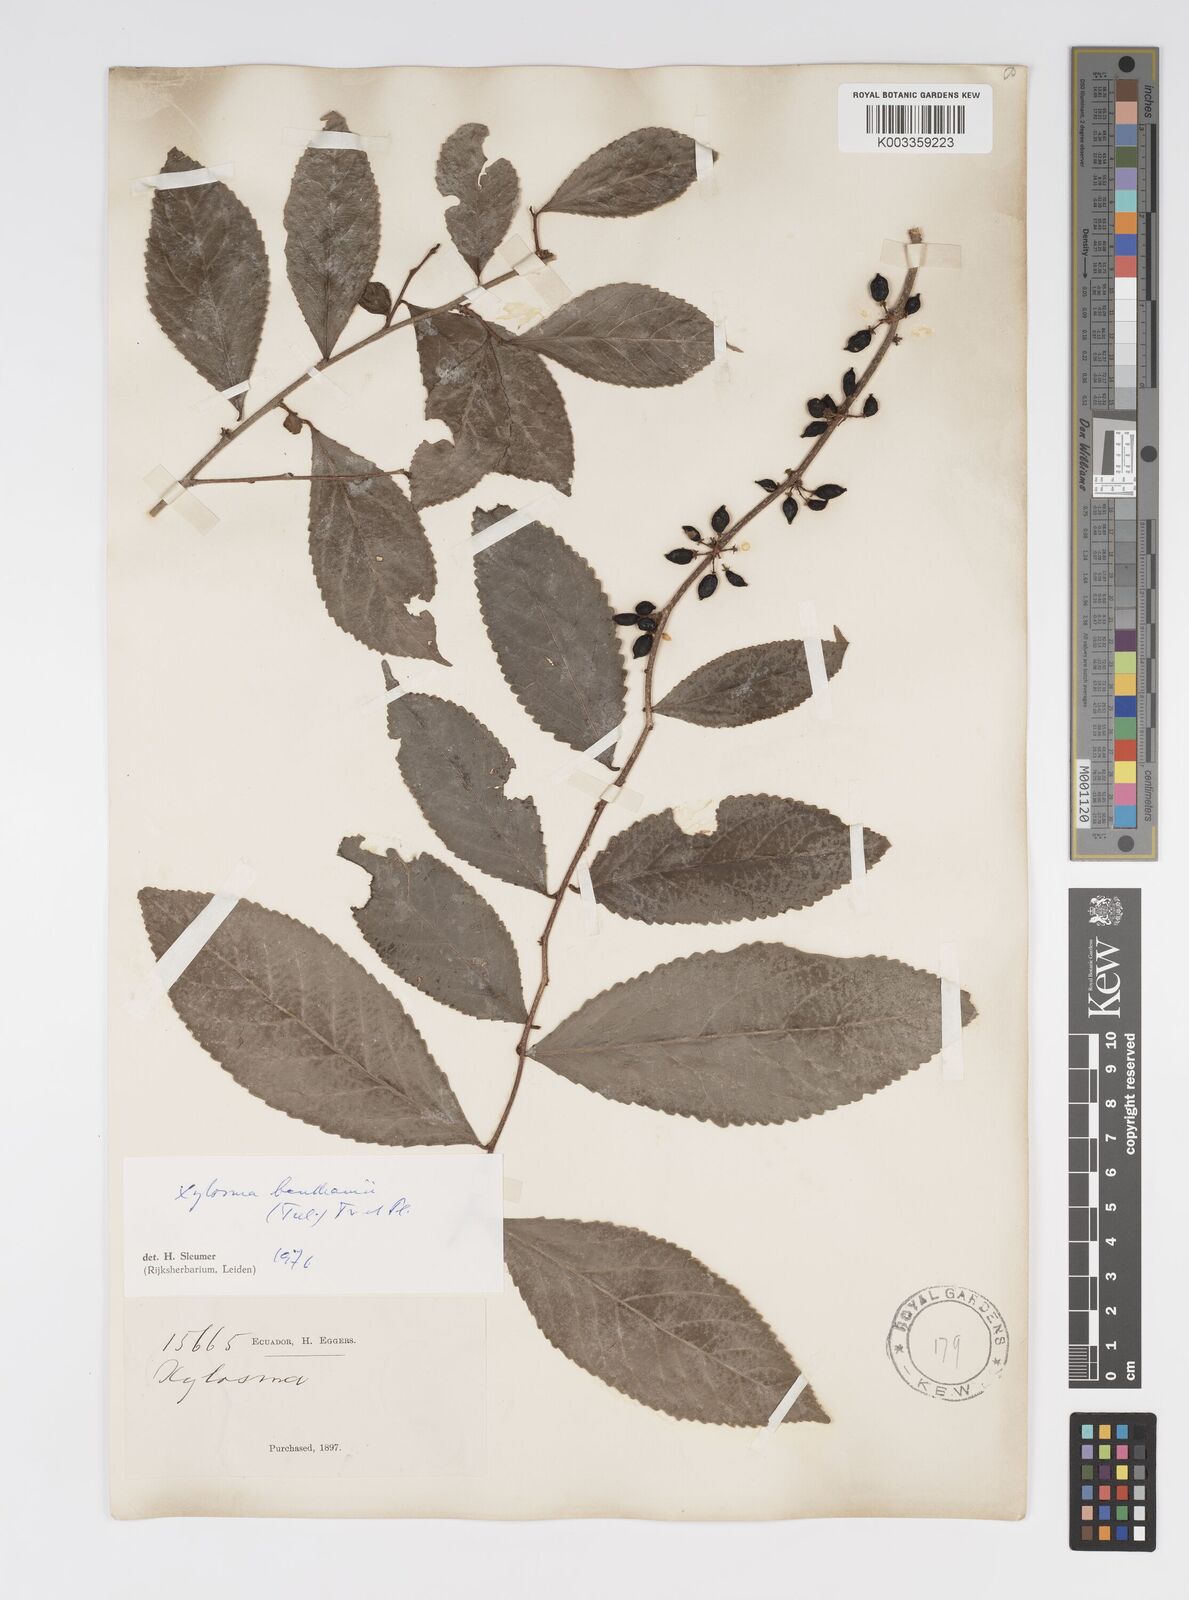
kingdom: Plantae
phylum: Tracheophyta
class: Magnoliopsida
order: Malpighiales
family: Salicaceae
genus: Xylosma
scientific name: Xylosma benthamii
